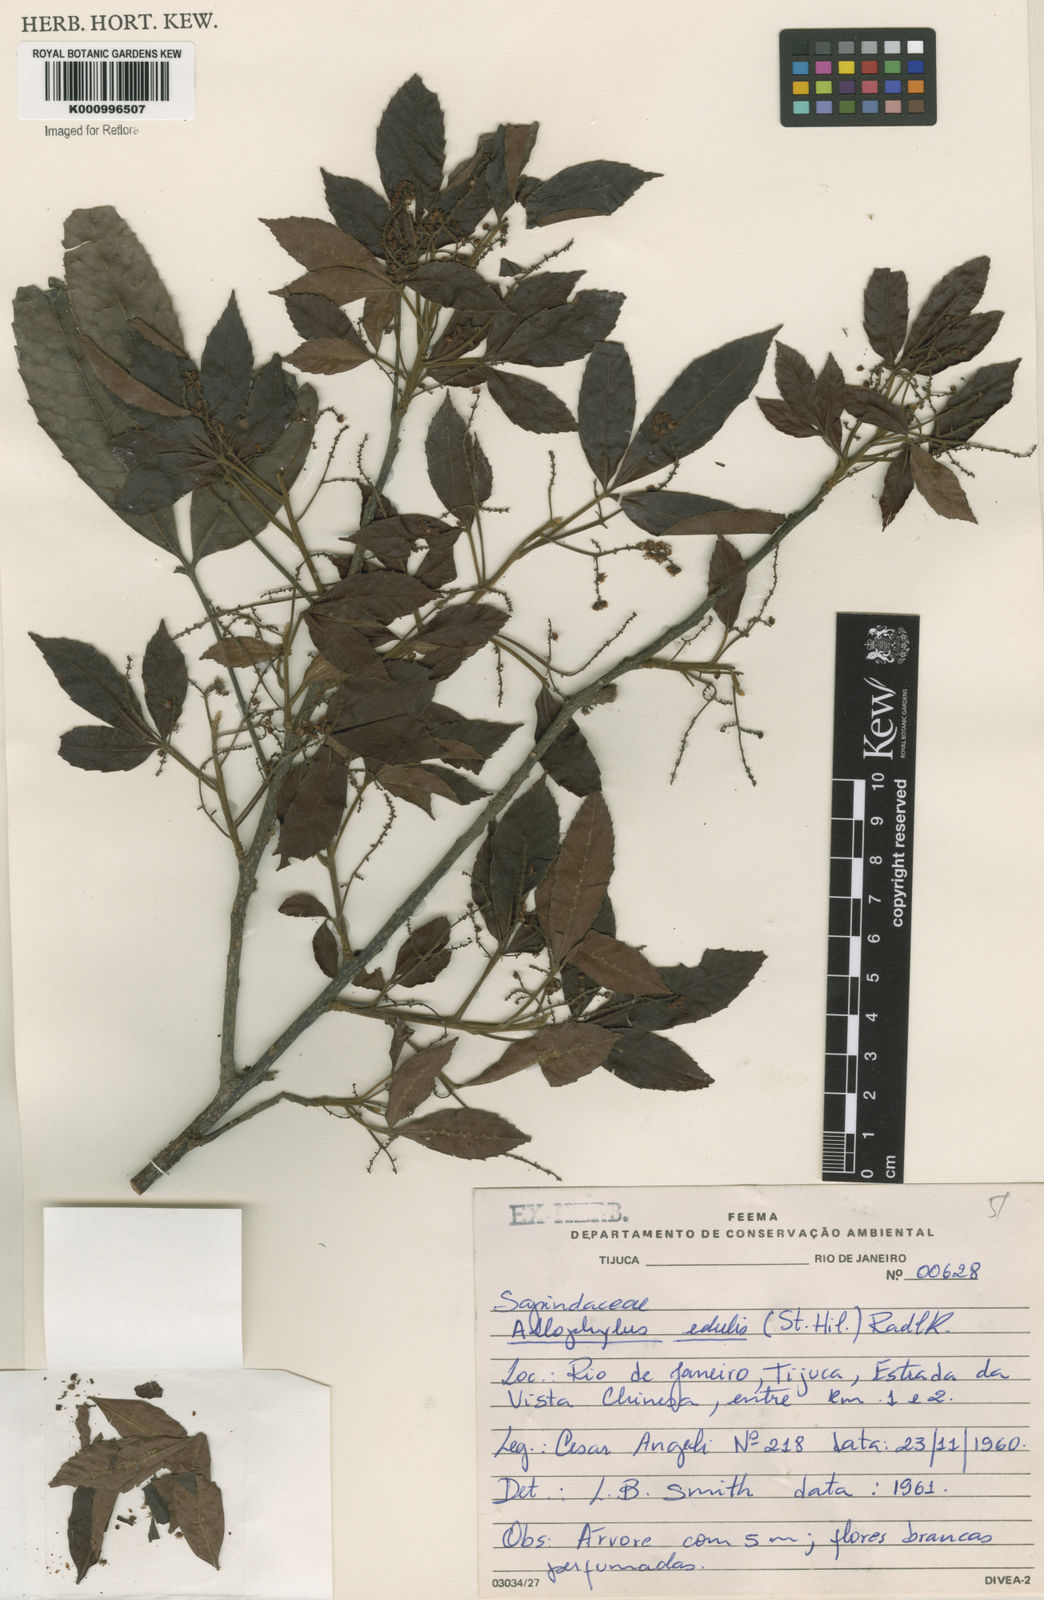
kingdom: Plantae
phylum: Tracheophyta
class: Magnoliopsida
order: Sapindales
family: Sapindaceae
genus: Allophylus
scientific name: Allophylus edulis
